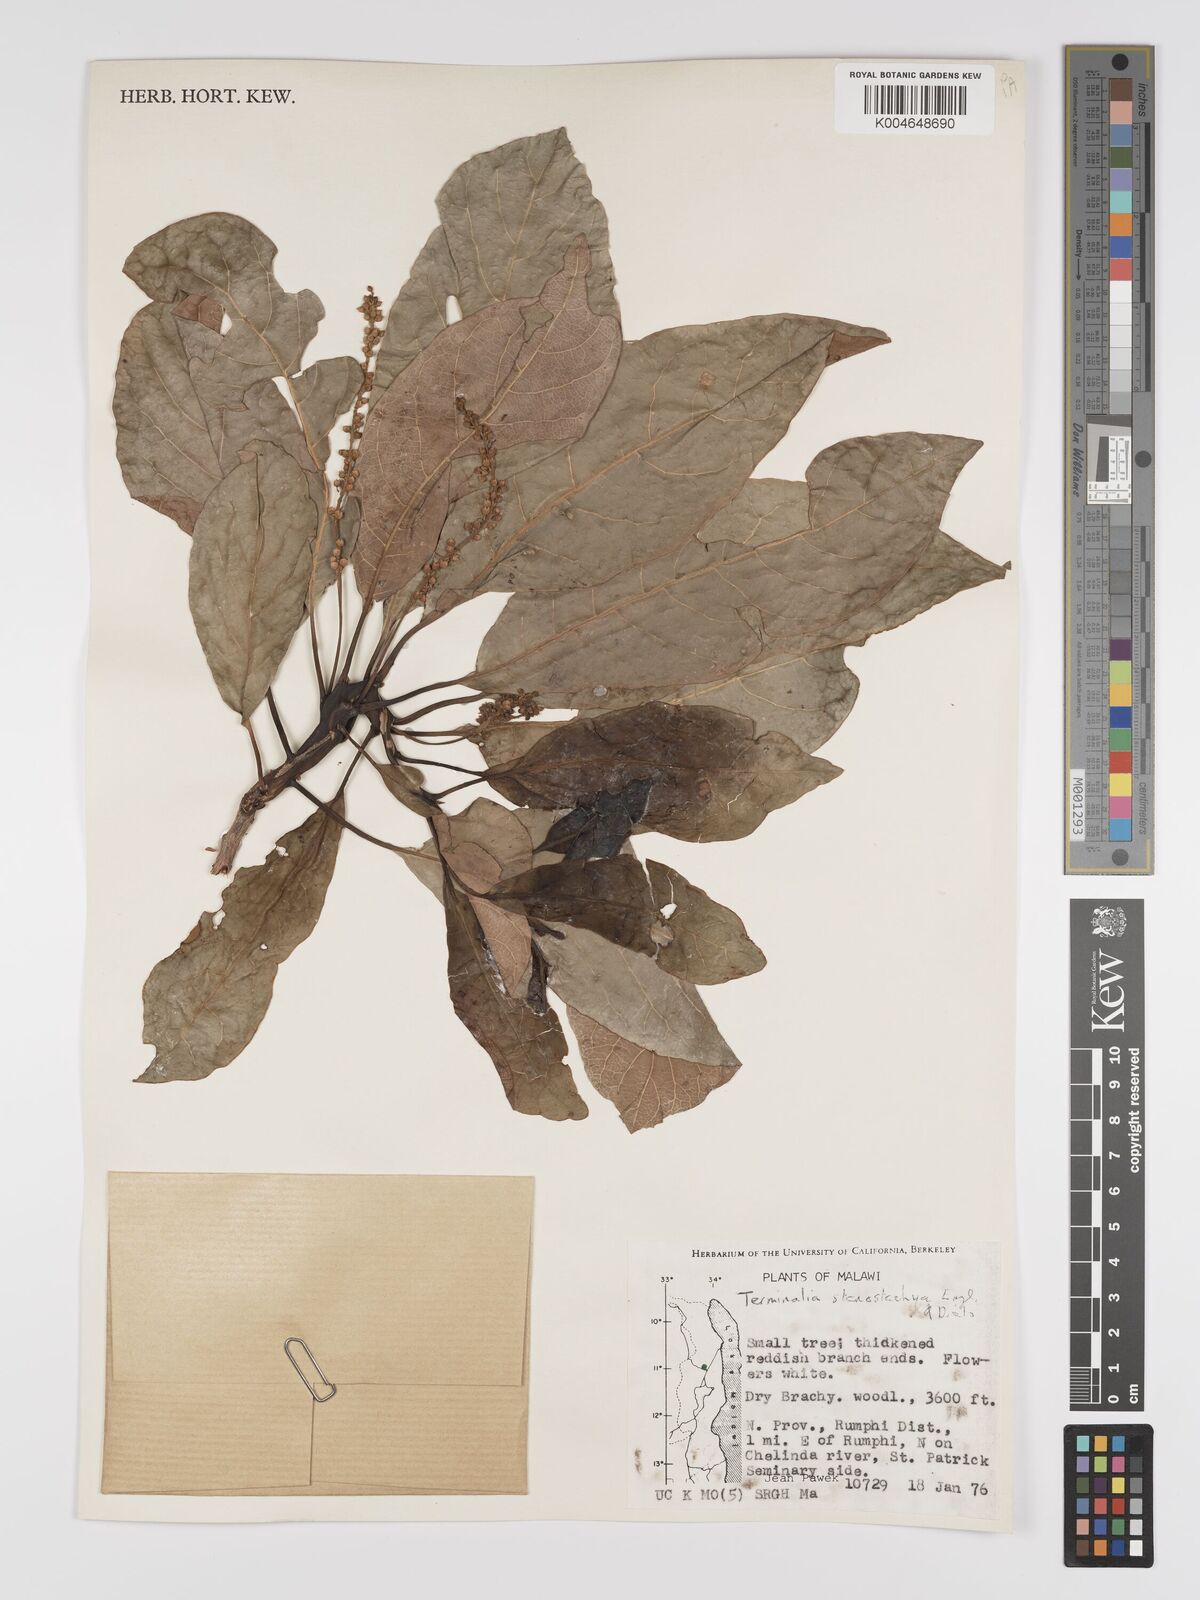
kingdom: Plantae
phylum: Tracheophyta
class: Magnoliopsida
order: Myrtales
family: Combretaceae
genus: Terminalia
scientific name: Terminalia stenostachya
